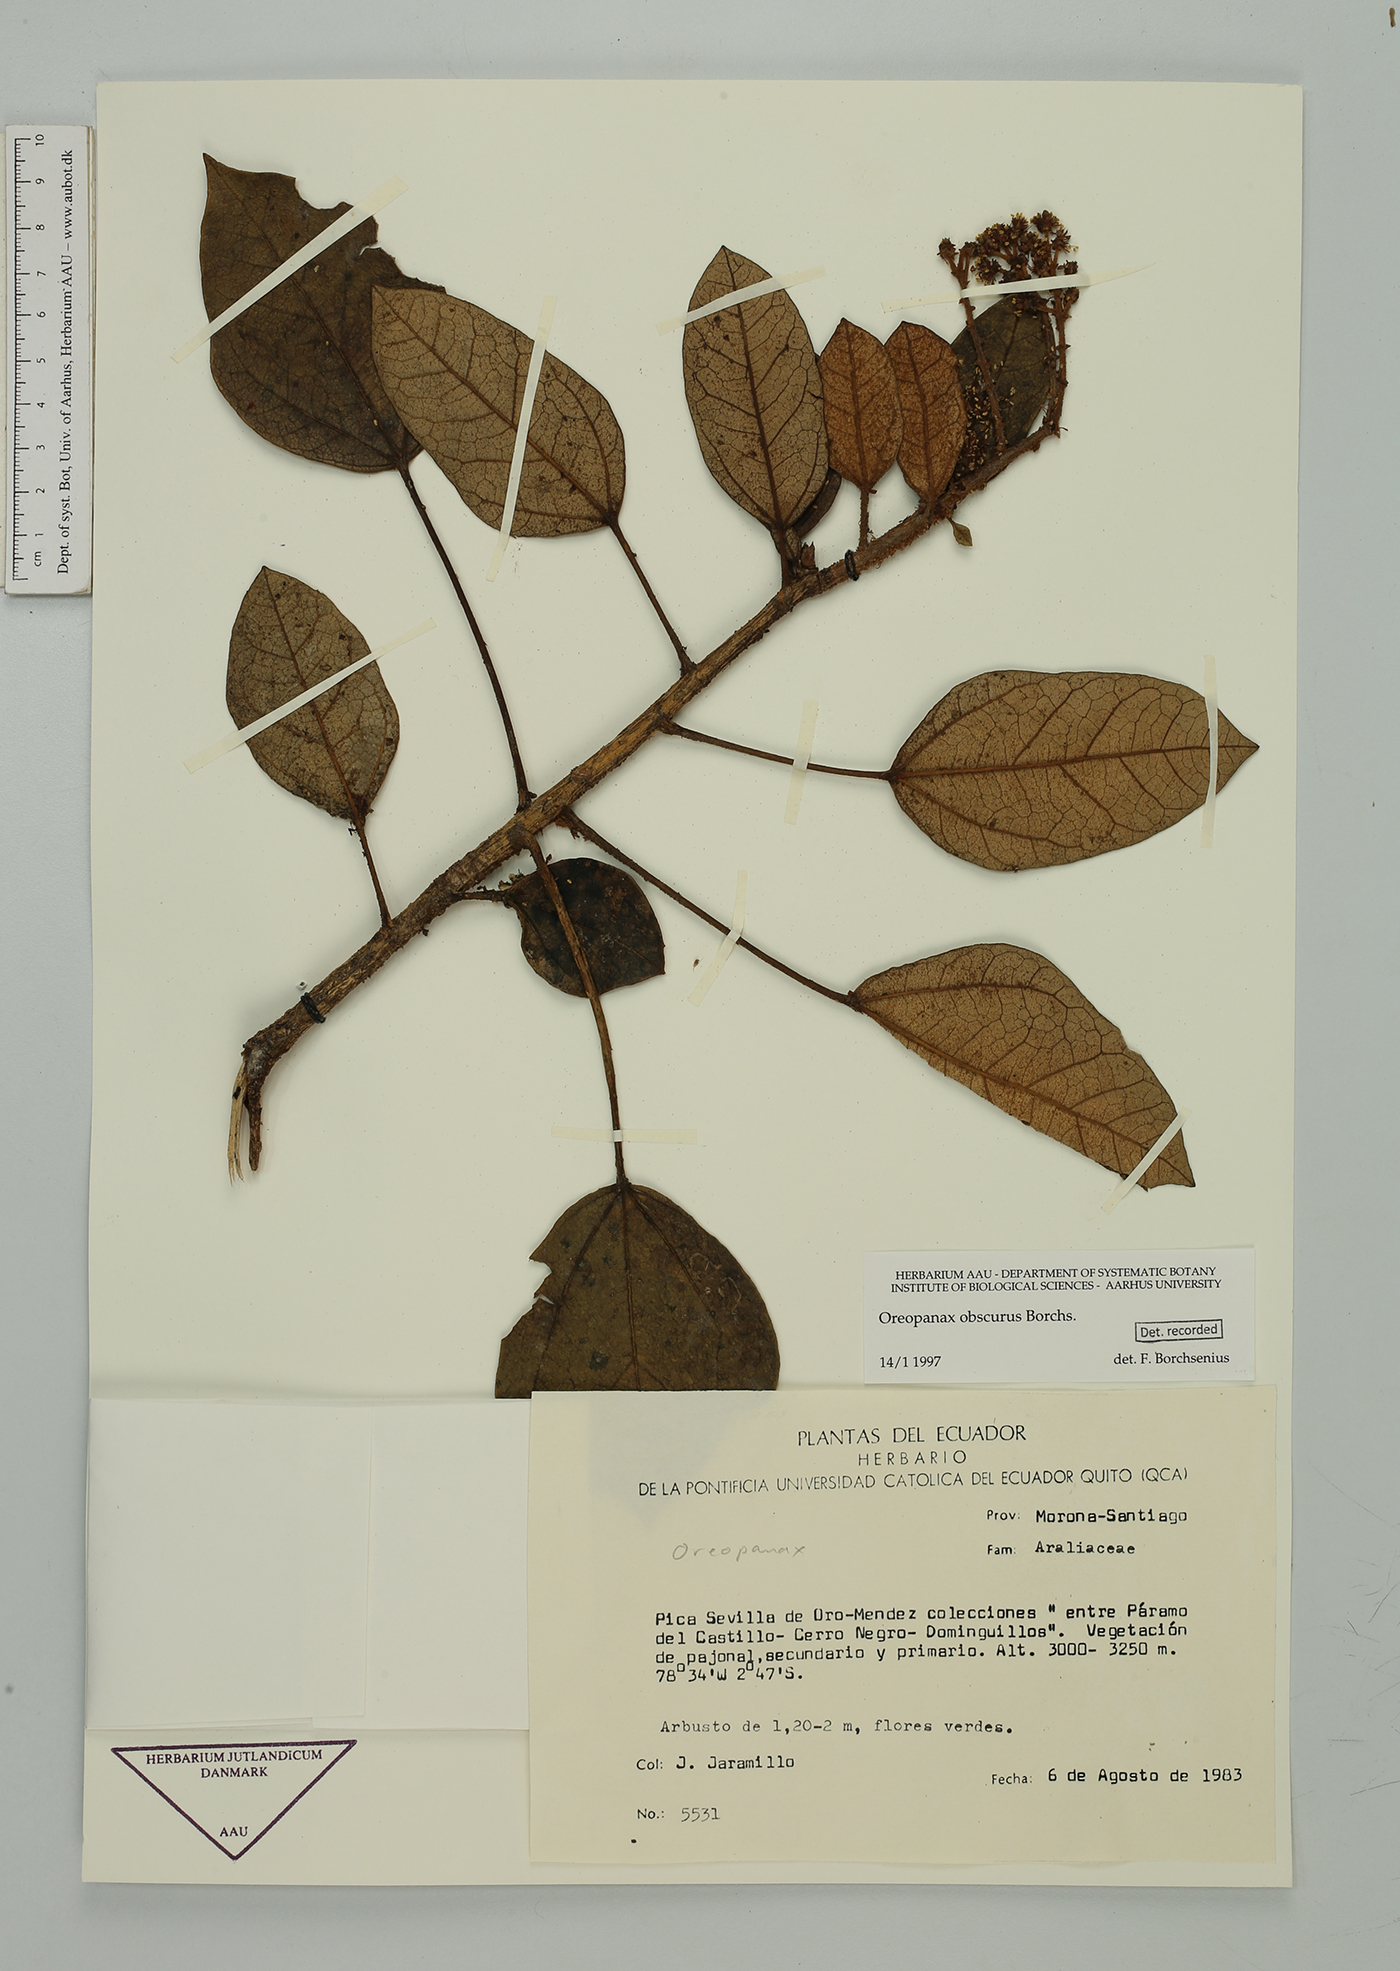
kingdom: Plantae
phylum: Tracheophyta
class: Magnoliopsida
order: Apiales
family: Araliaceae
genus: Oreopanax
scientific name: Oreopanax obscurus
